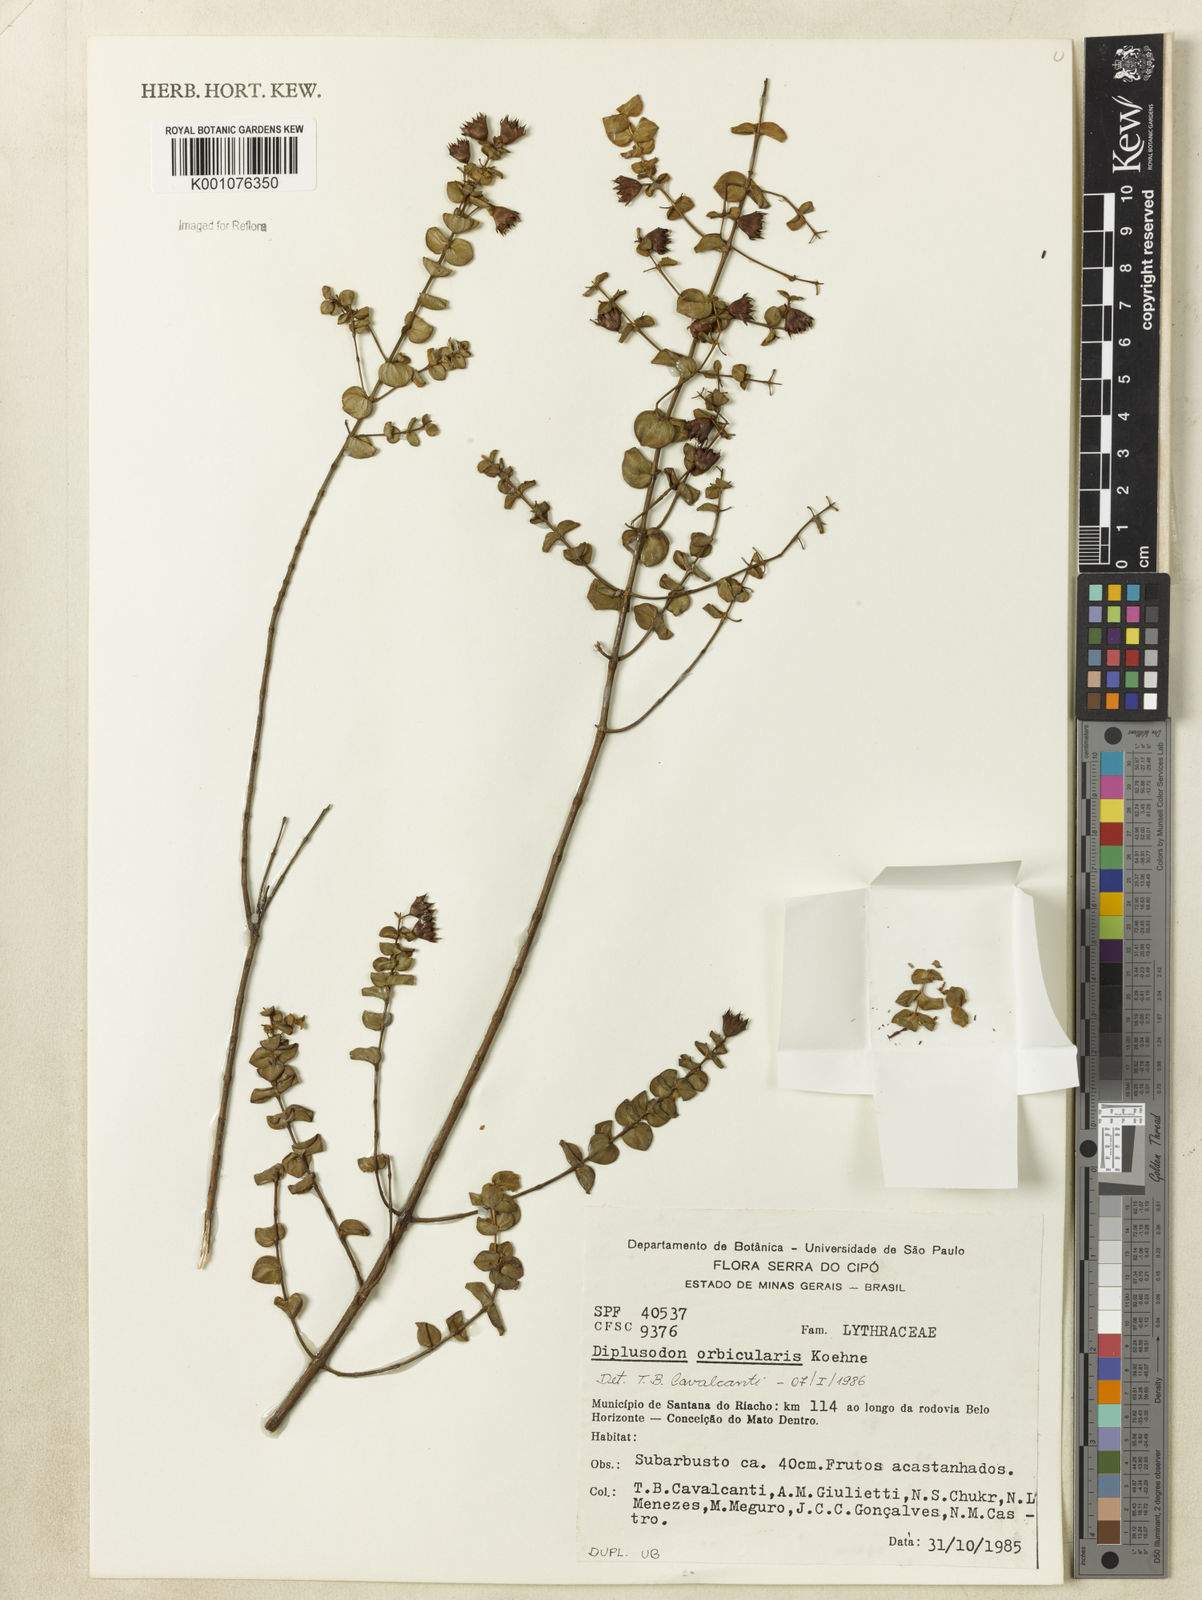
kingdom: Plantae
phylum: Tracheophyta
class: Magnoliopsida
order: Myrtales
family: Lythraceae
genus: Diplusodon
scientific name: Diplusodon orbicularis
